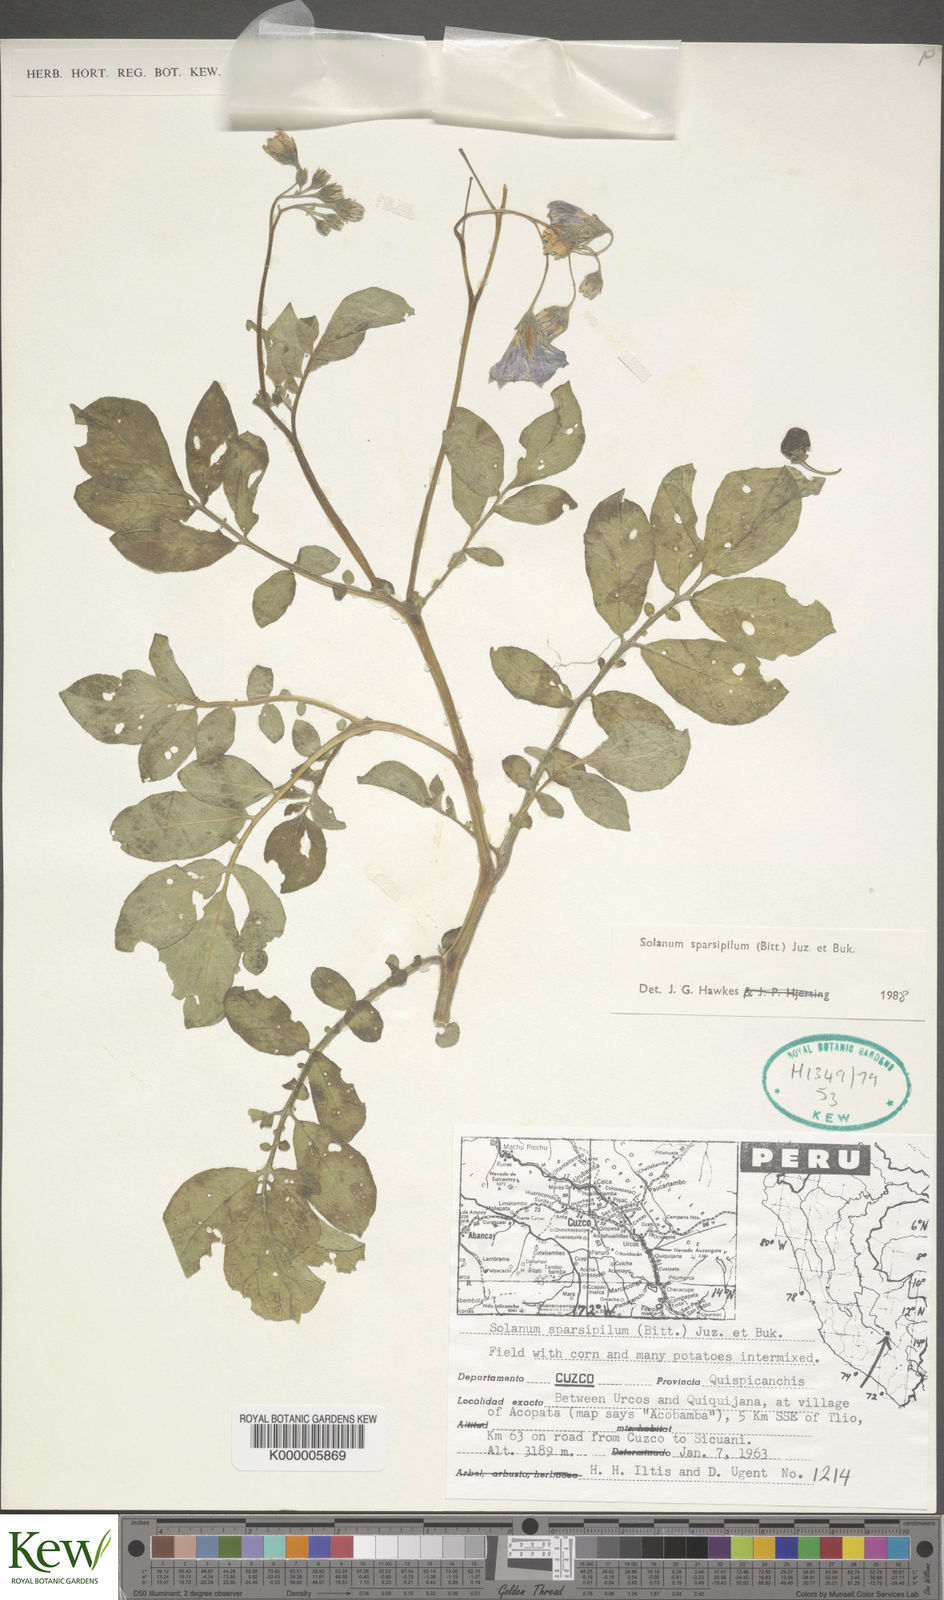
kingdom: Plantae
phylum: Tracheophyta
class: Magnoliopsida
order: Solanales
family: Solanaceae
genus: Solanum
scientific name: Solanum cyanocarphium
